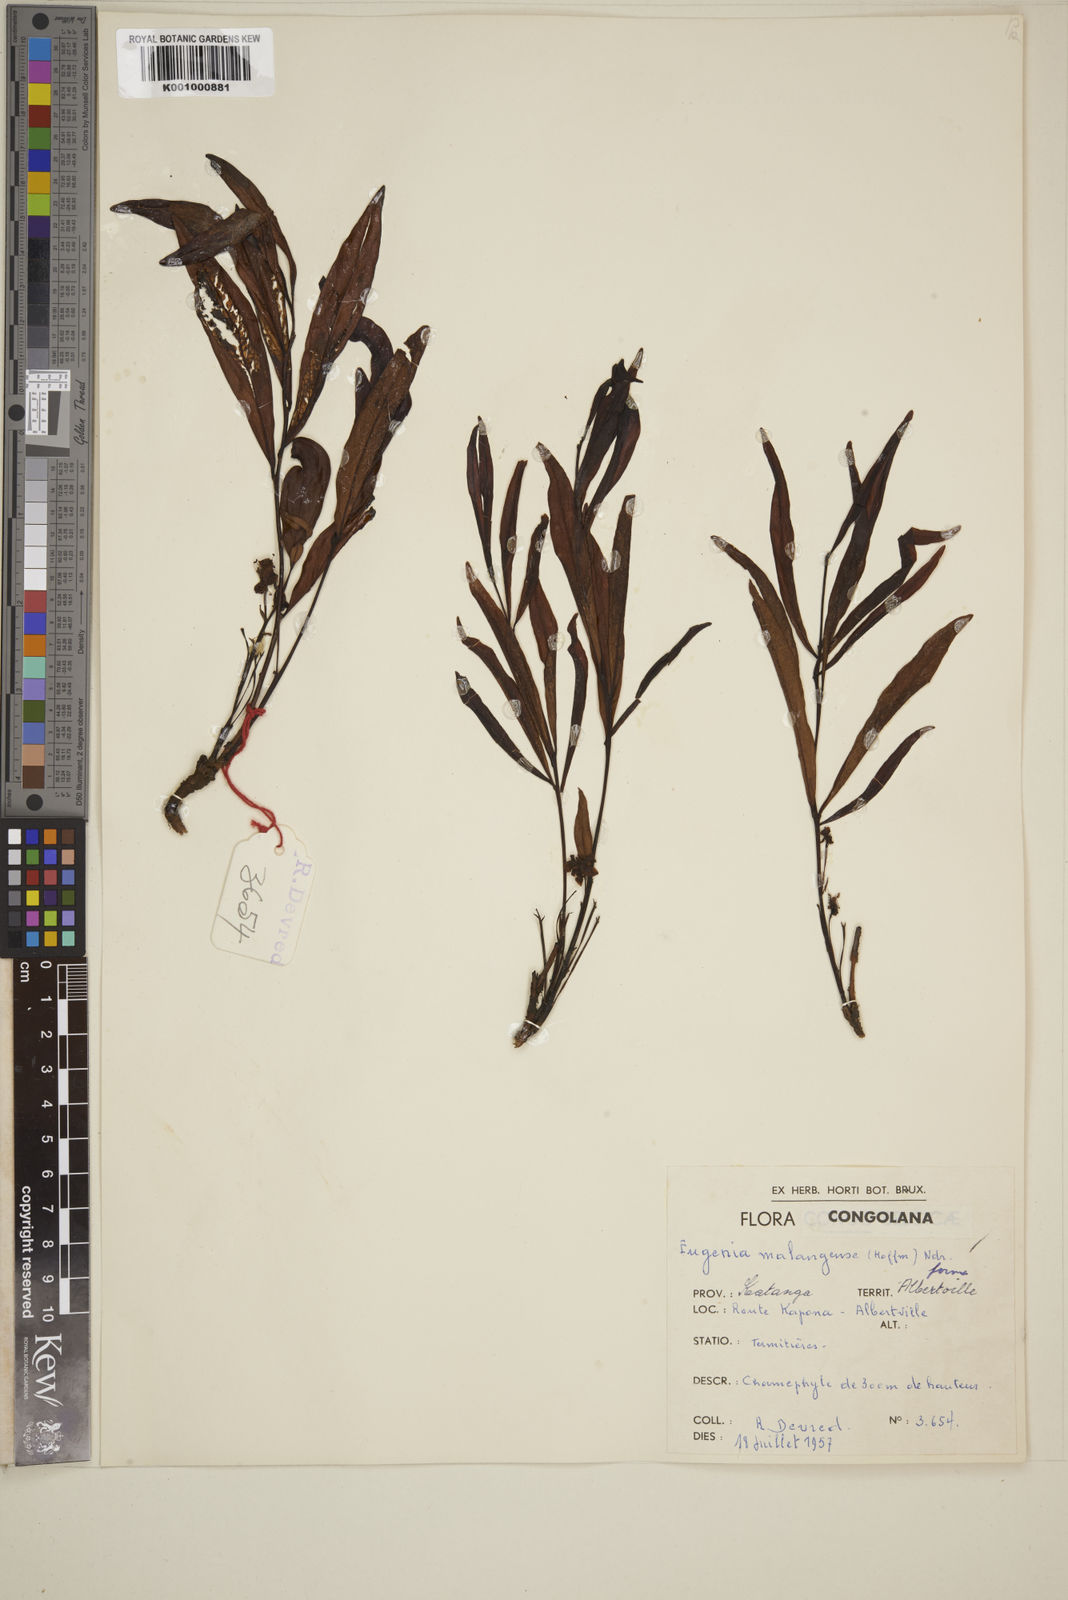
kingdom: Plantae
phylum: Tracheophyta
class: Magnoliopsida
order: Myrtales
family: Myrtaceae
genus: Eugenia
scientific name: Eugenia malangensis
